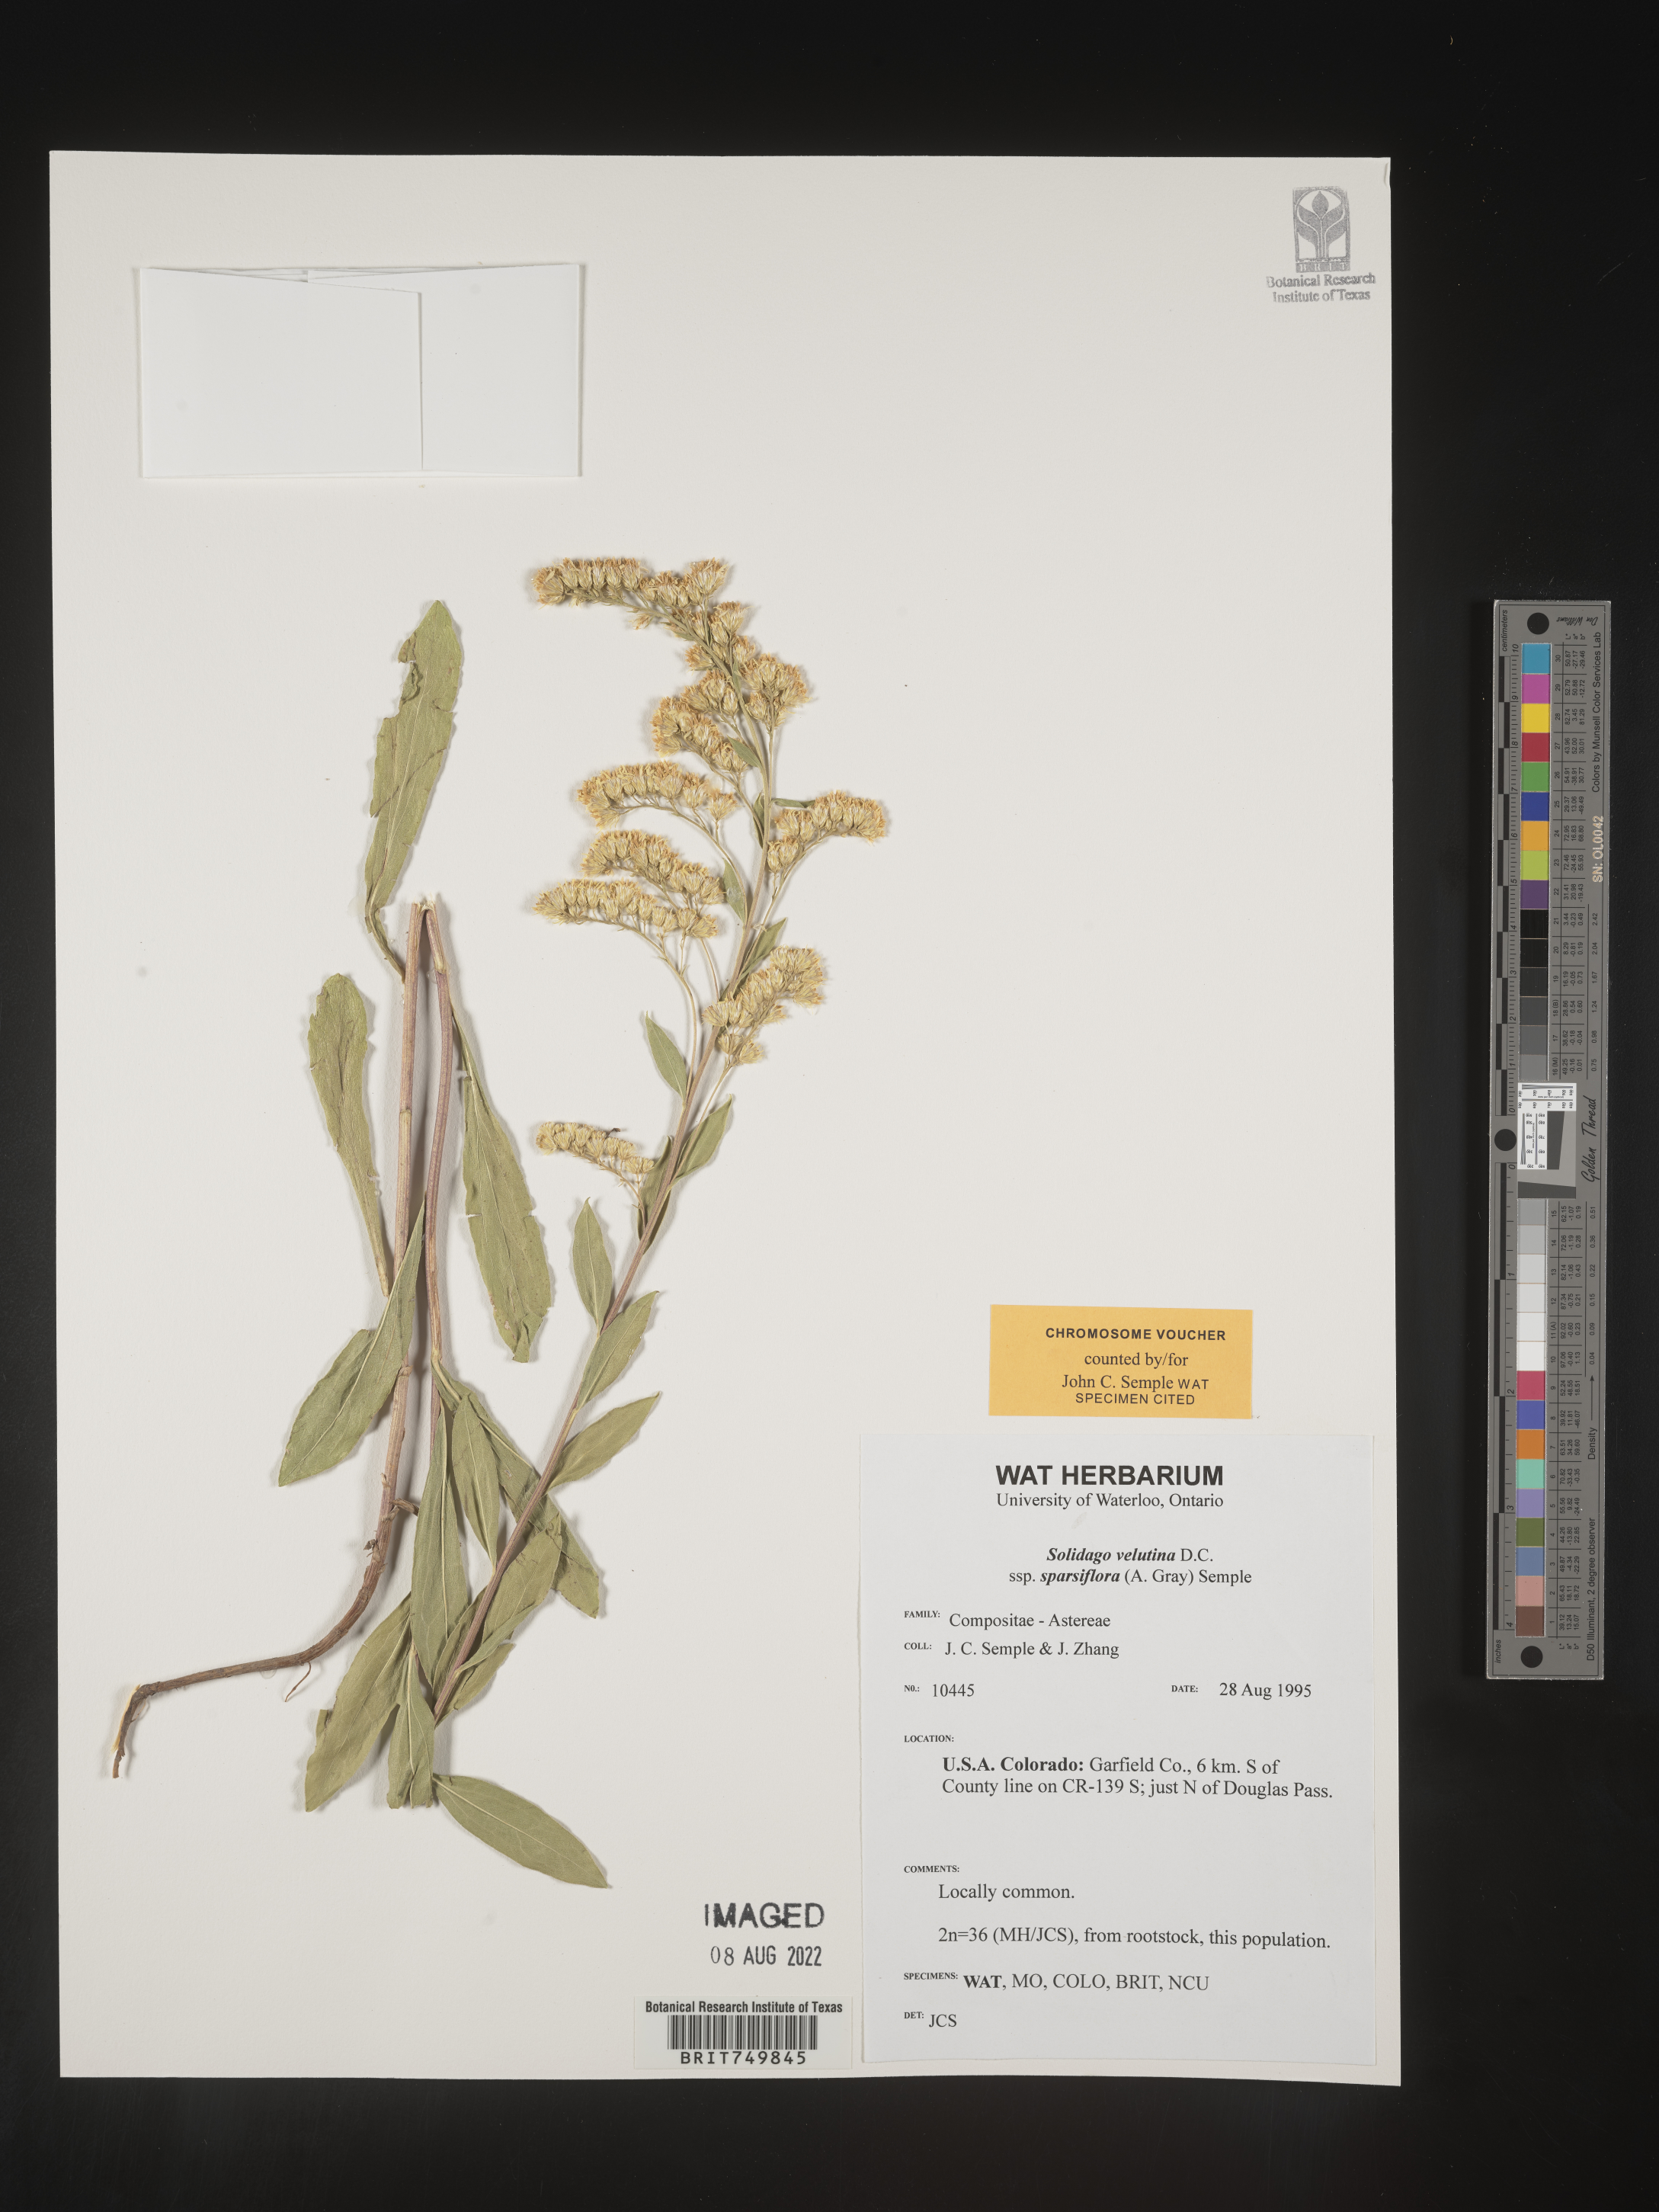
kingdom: Plantae
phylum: Tracheophyta
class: Magnoliopsida
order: Asterales
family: Asteraceae
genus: Solidago
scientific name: Solidago velutina
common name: Three-nerve goldenrod
